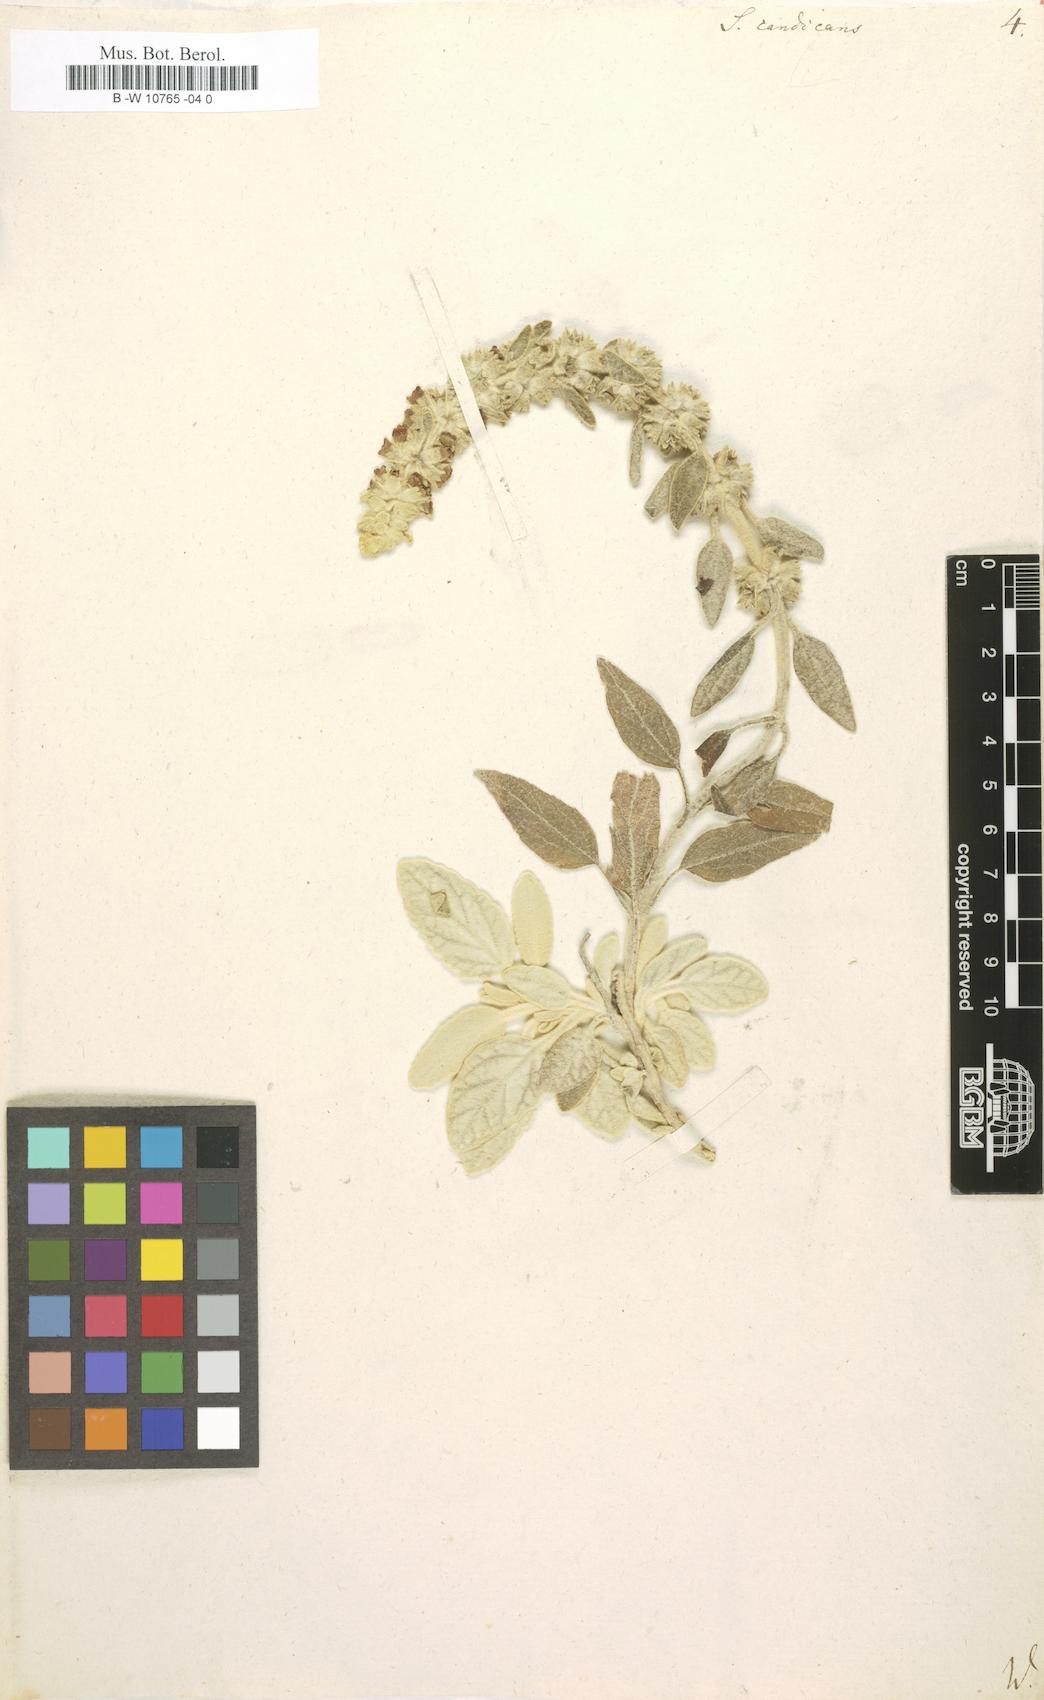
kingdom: Plantae
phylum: Tracheophyta
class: Magnoliopsida
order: Lamiales
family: Lamiaceae
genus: Sideritis
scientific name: Sideritis candicans
